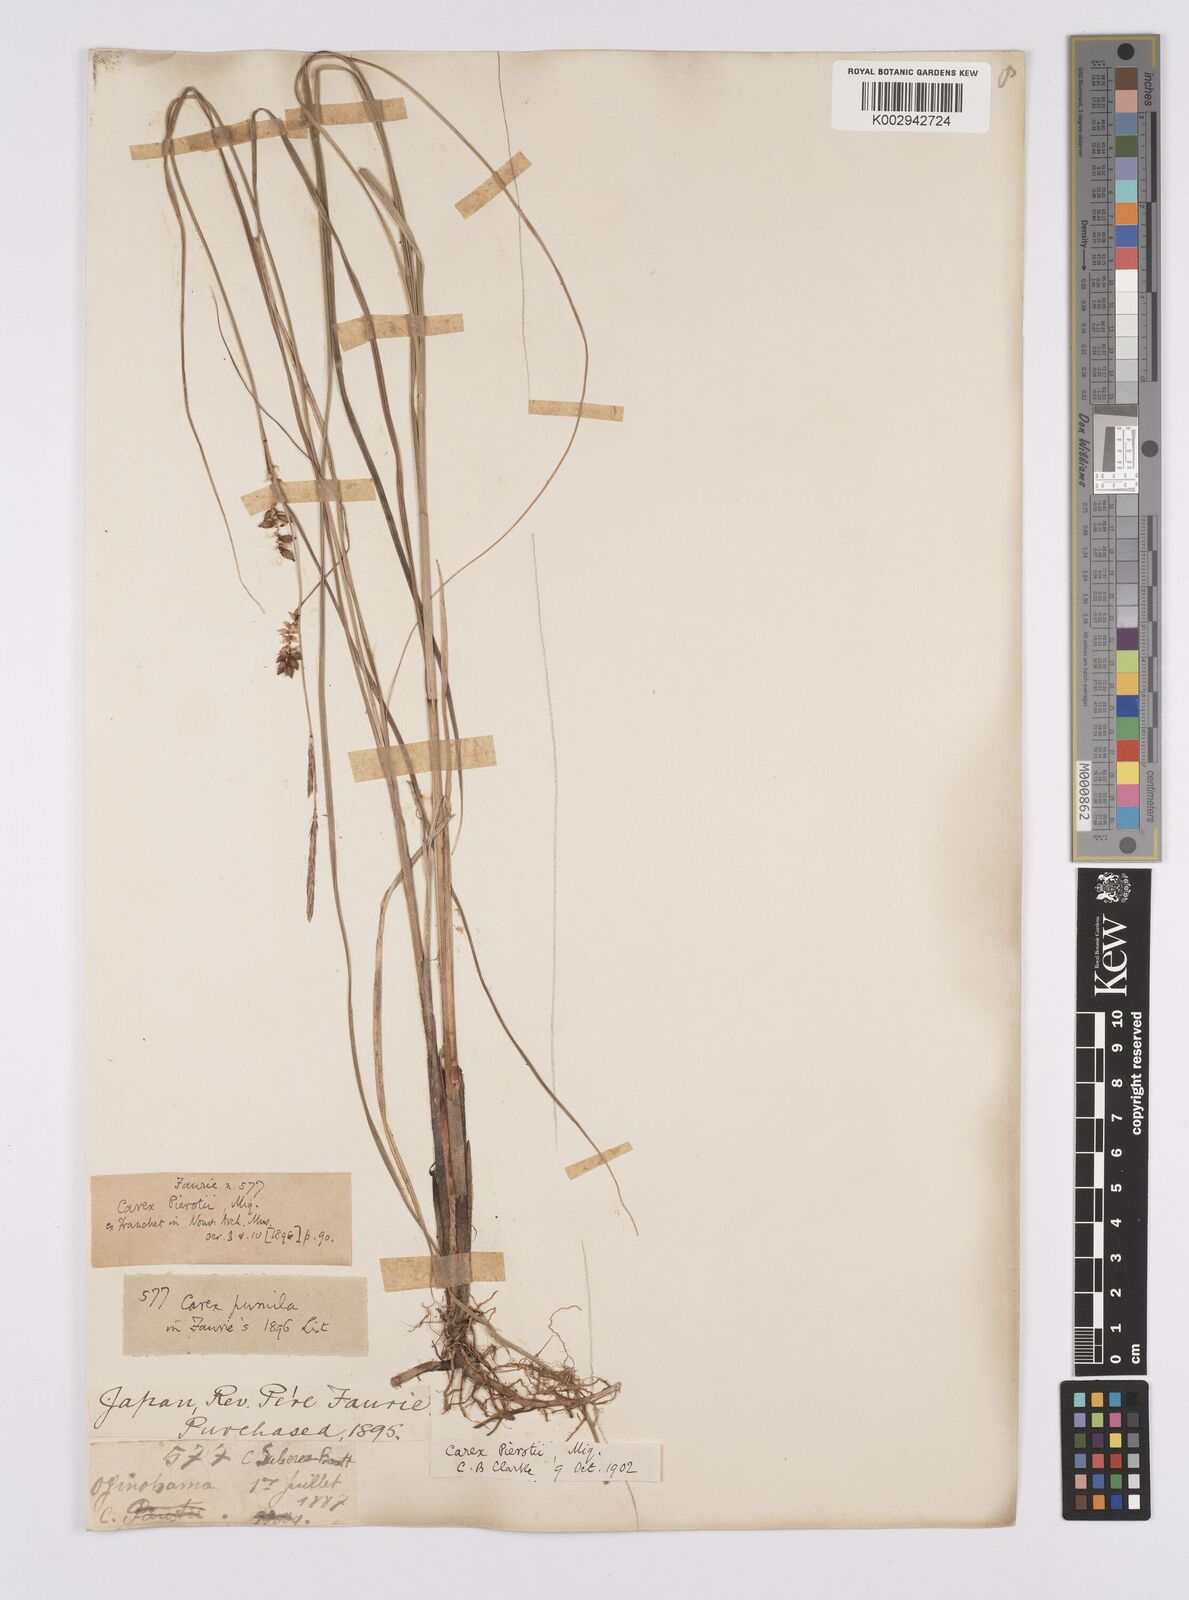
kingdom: Plantae
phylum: Tracheophyta
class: Liliopsida
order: Poales
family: Cyperaceae
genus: Carex
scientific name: Carex scabrifolia
